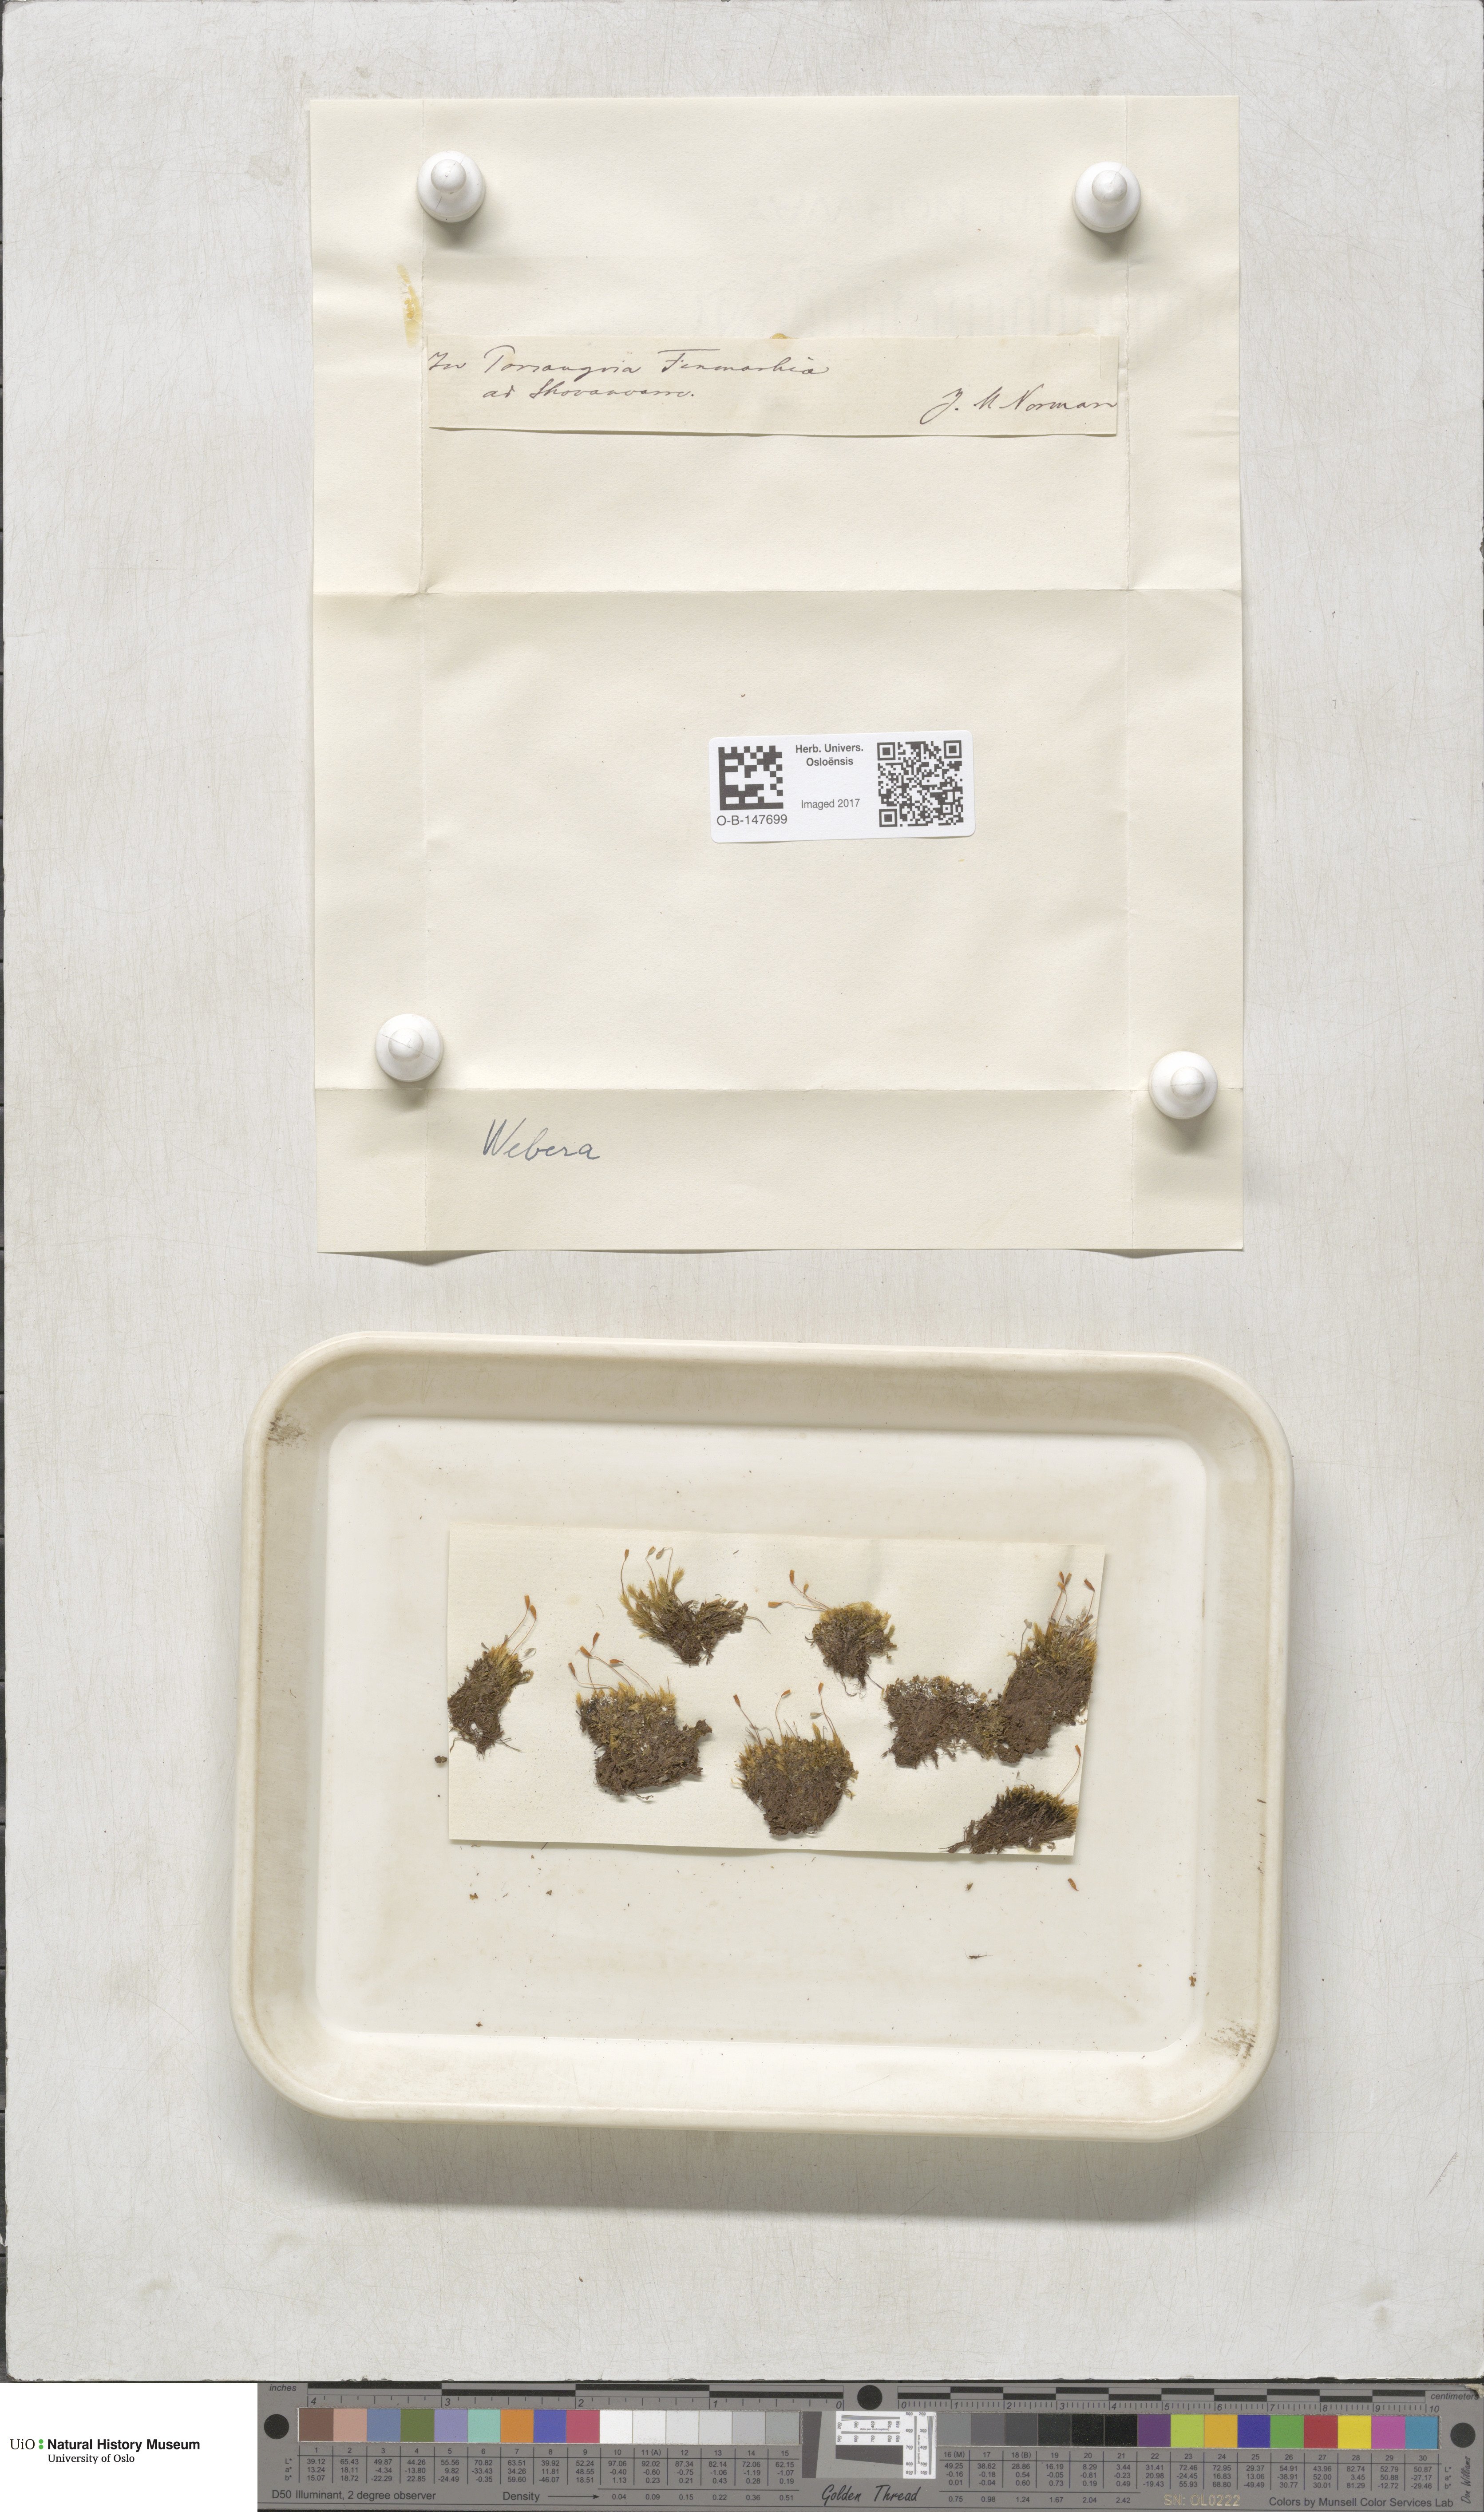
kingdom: Plantae
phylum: Bryophyta
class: Bryopsida
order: Bryales
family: Mniaceae
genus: Pohlia
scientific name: Pohlia
